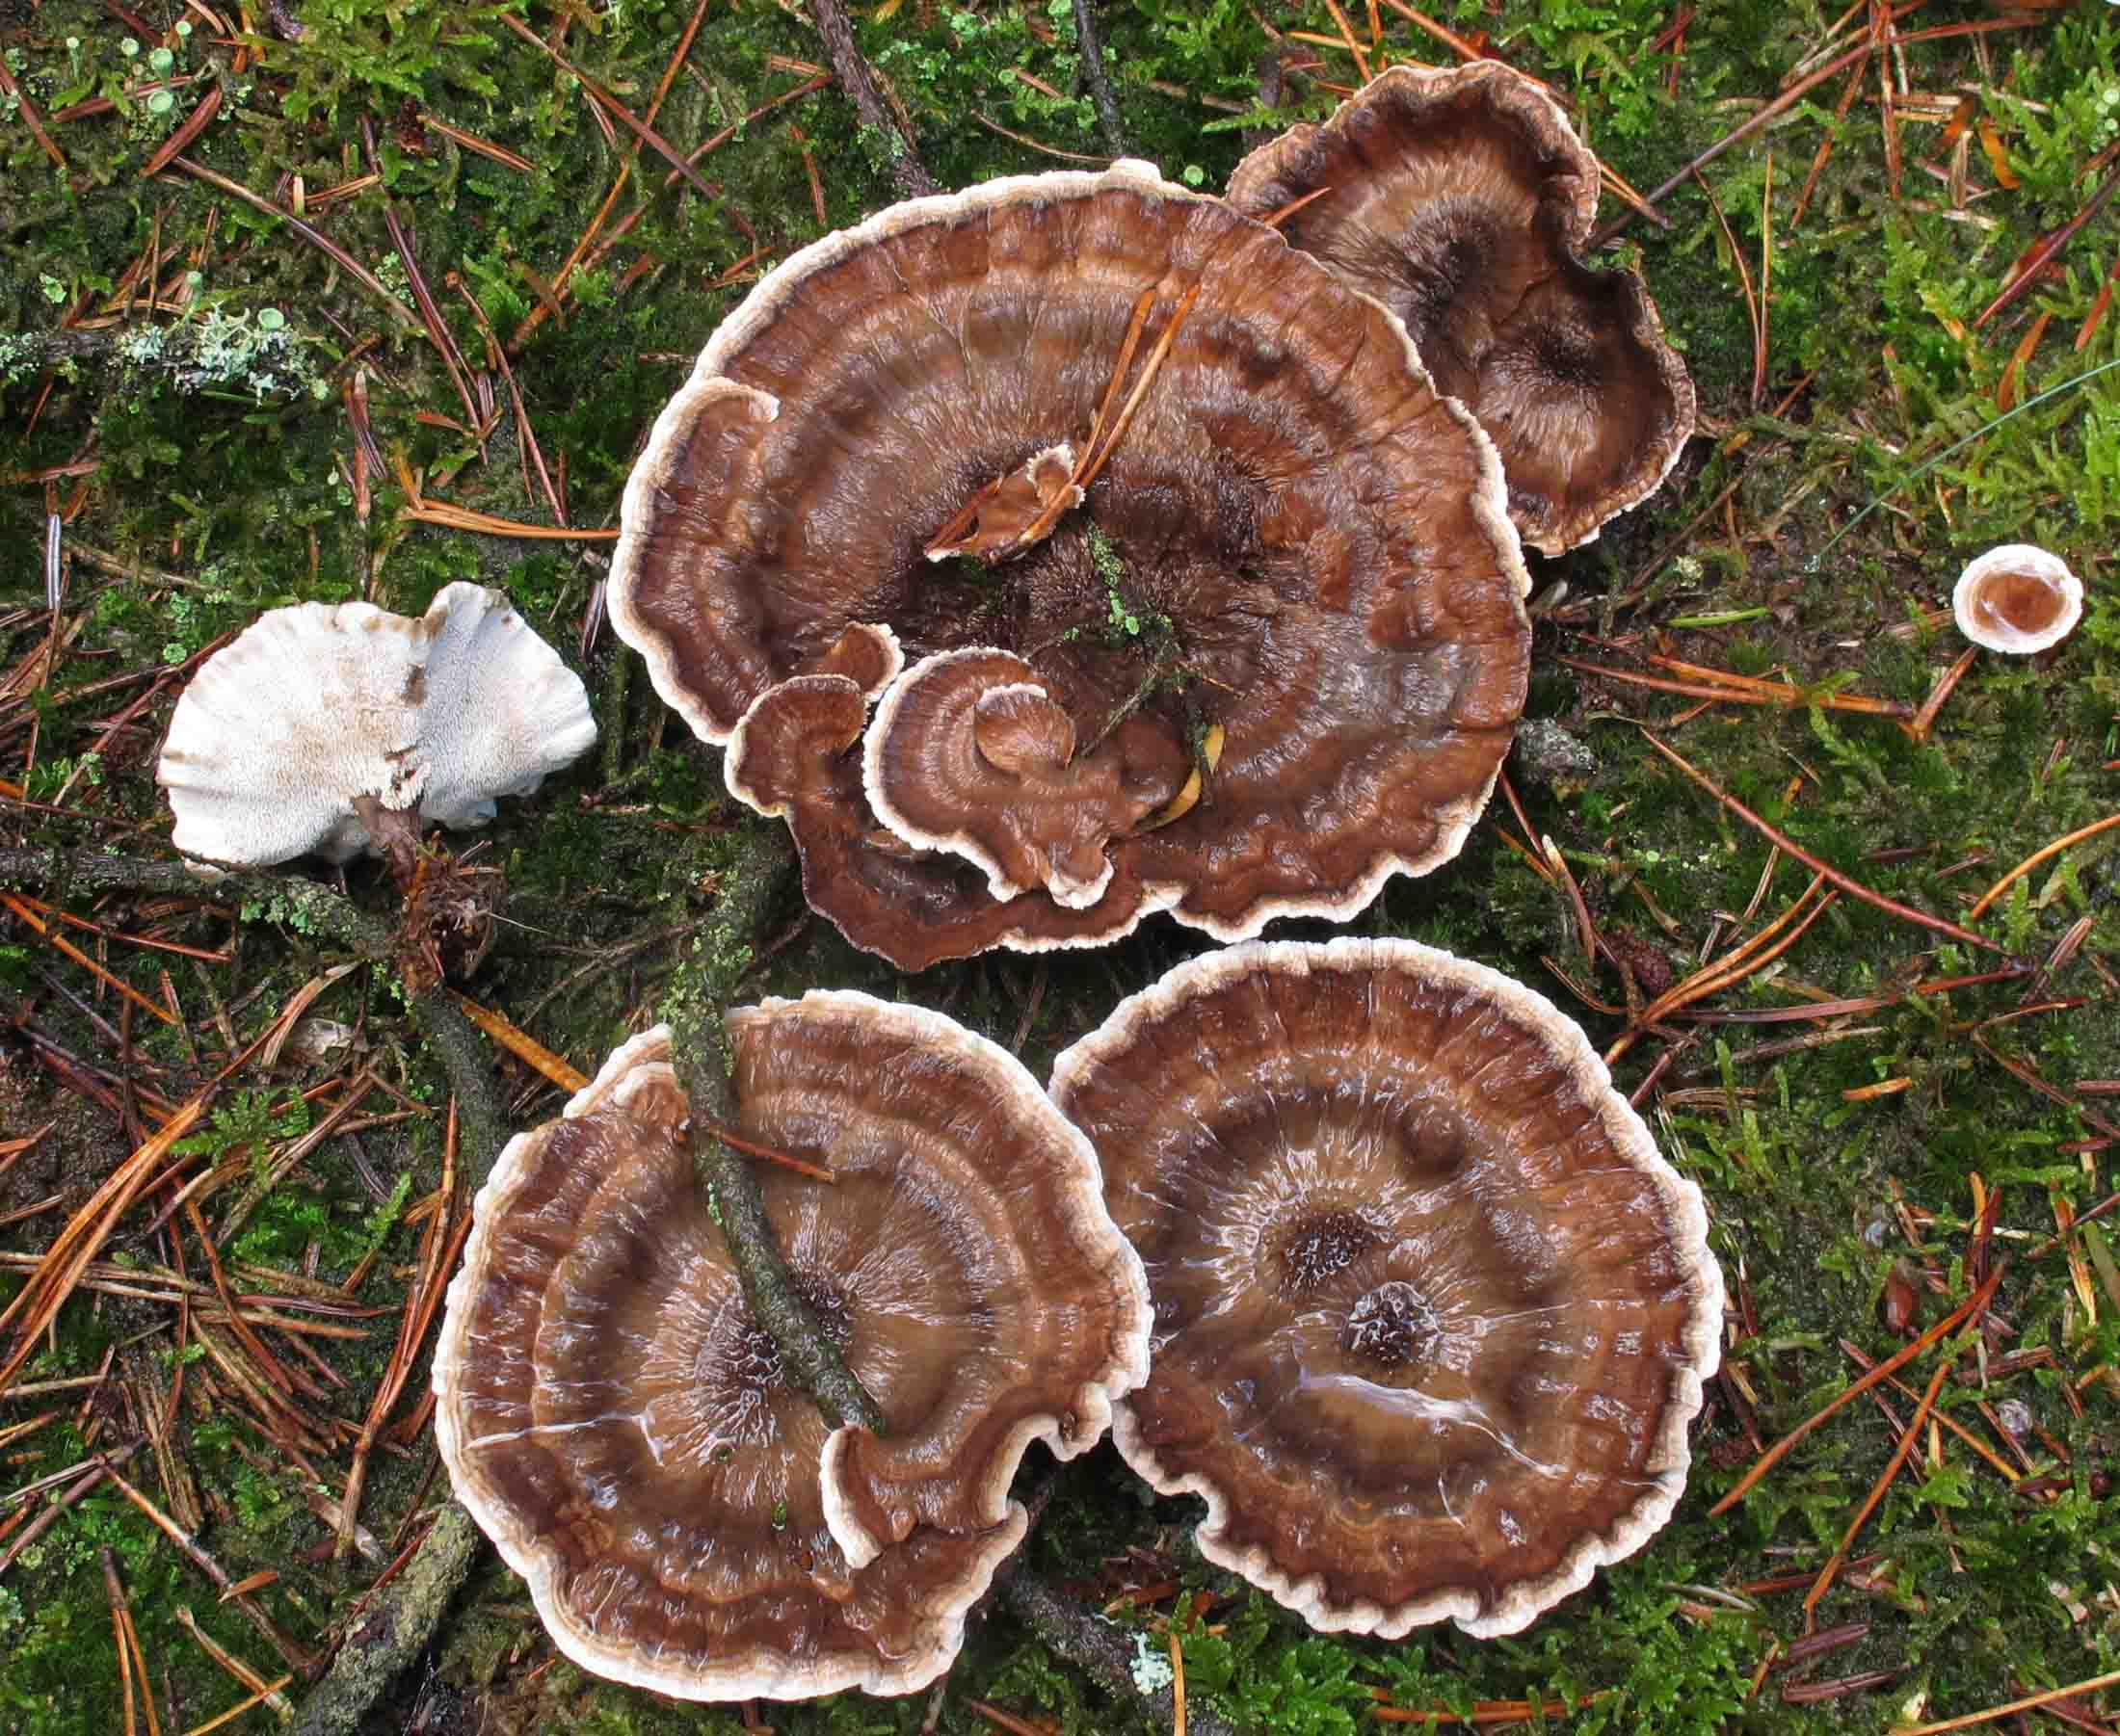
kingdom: Fungi
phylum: Basidiomycota
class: Agaricomycetes
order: Thelephorales
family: Thelephoraceae
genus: Phellodon
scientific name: Phellodon tomentosus
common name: tragtformet duftpigsvamp
